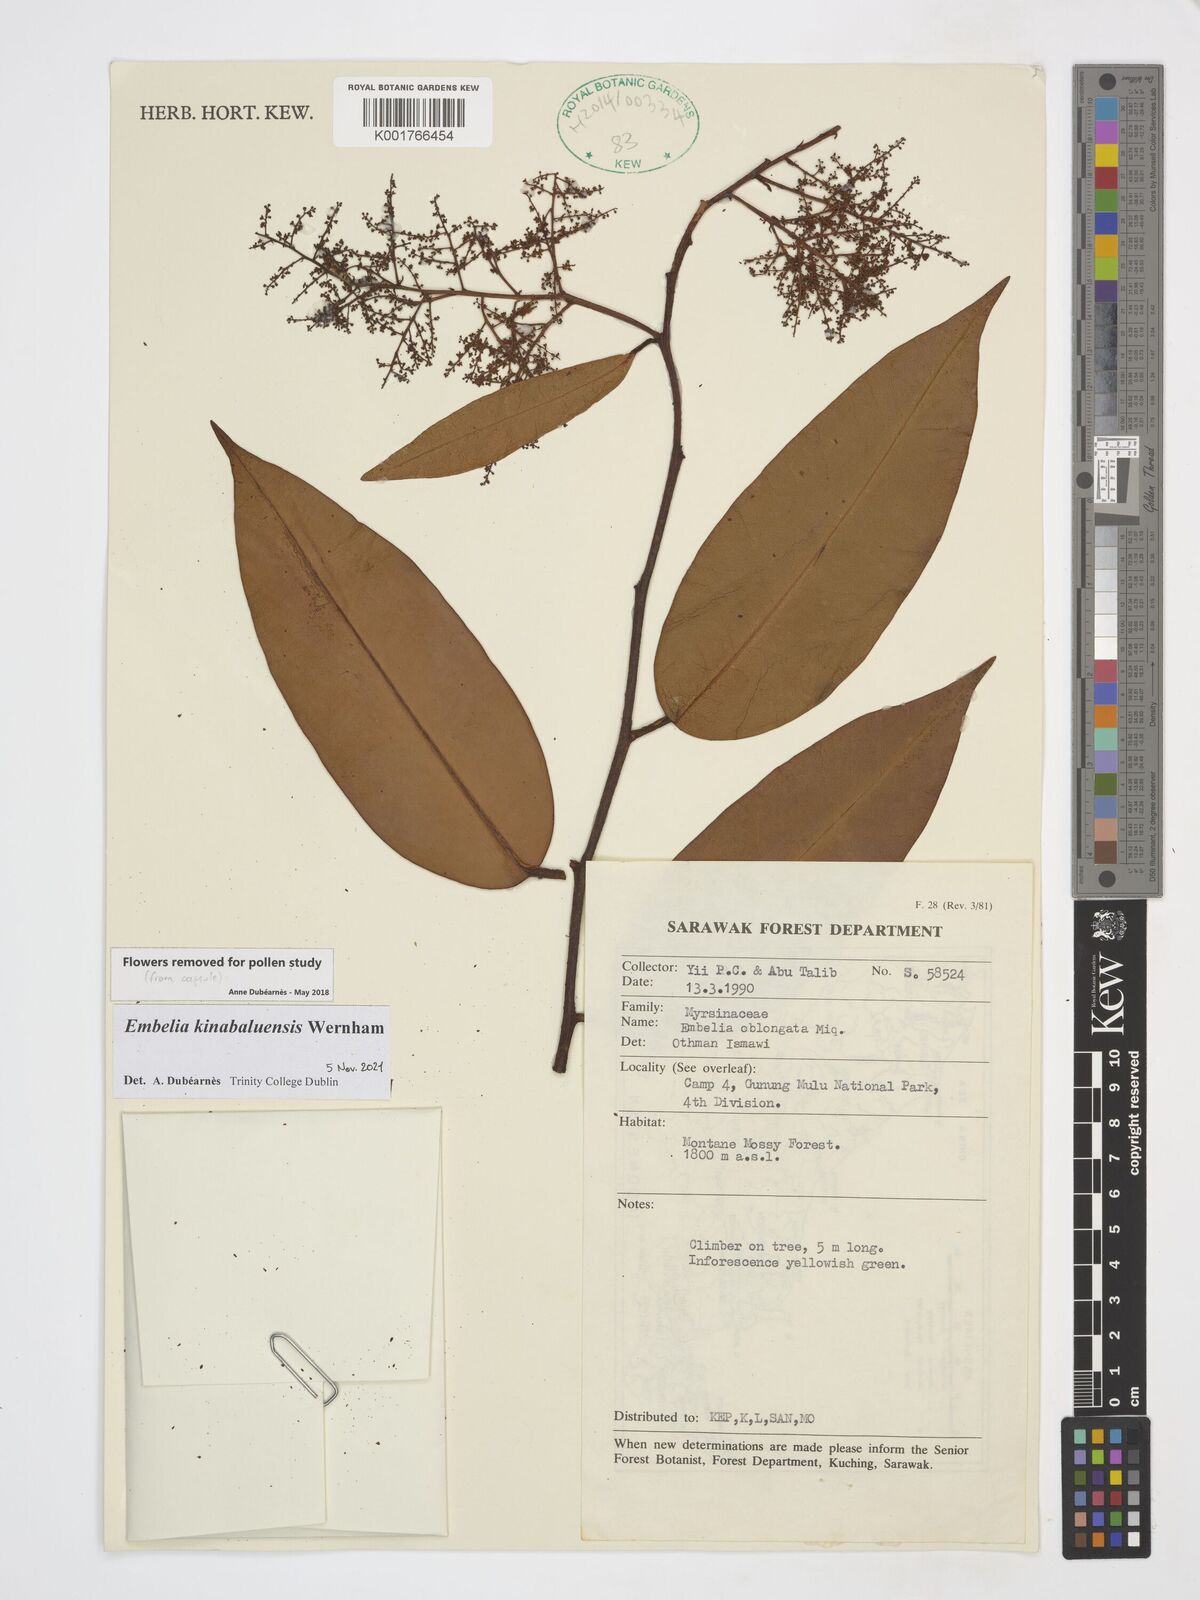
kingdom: Plantae
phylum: Tracheophyta
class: Magnoliopsida
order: Ericales
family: Primulaceae
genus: Embelia
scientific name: Embelia angulosa
